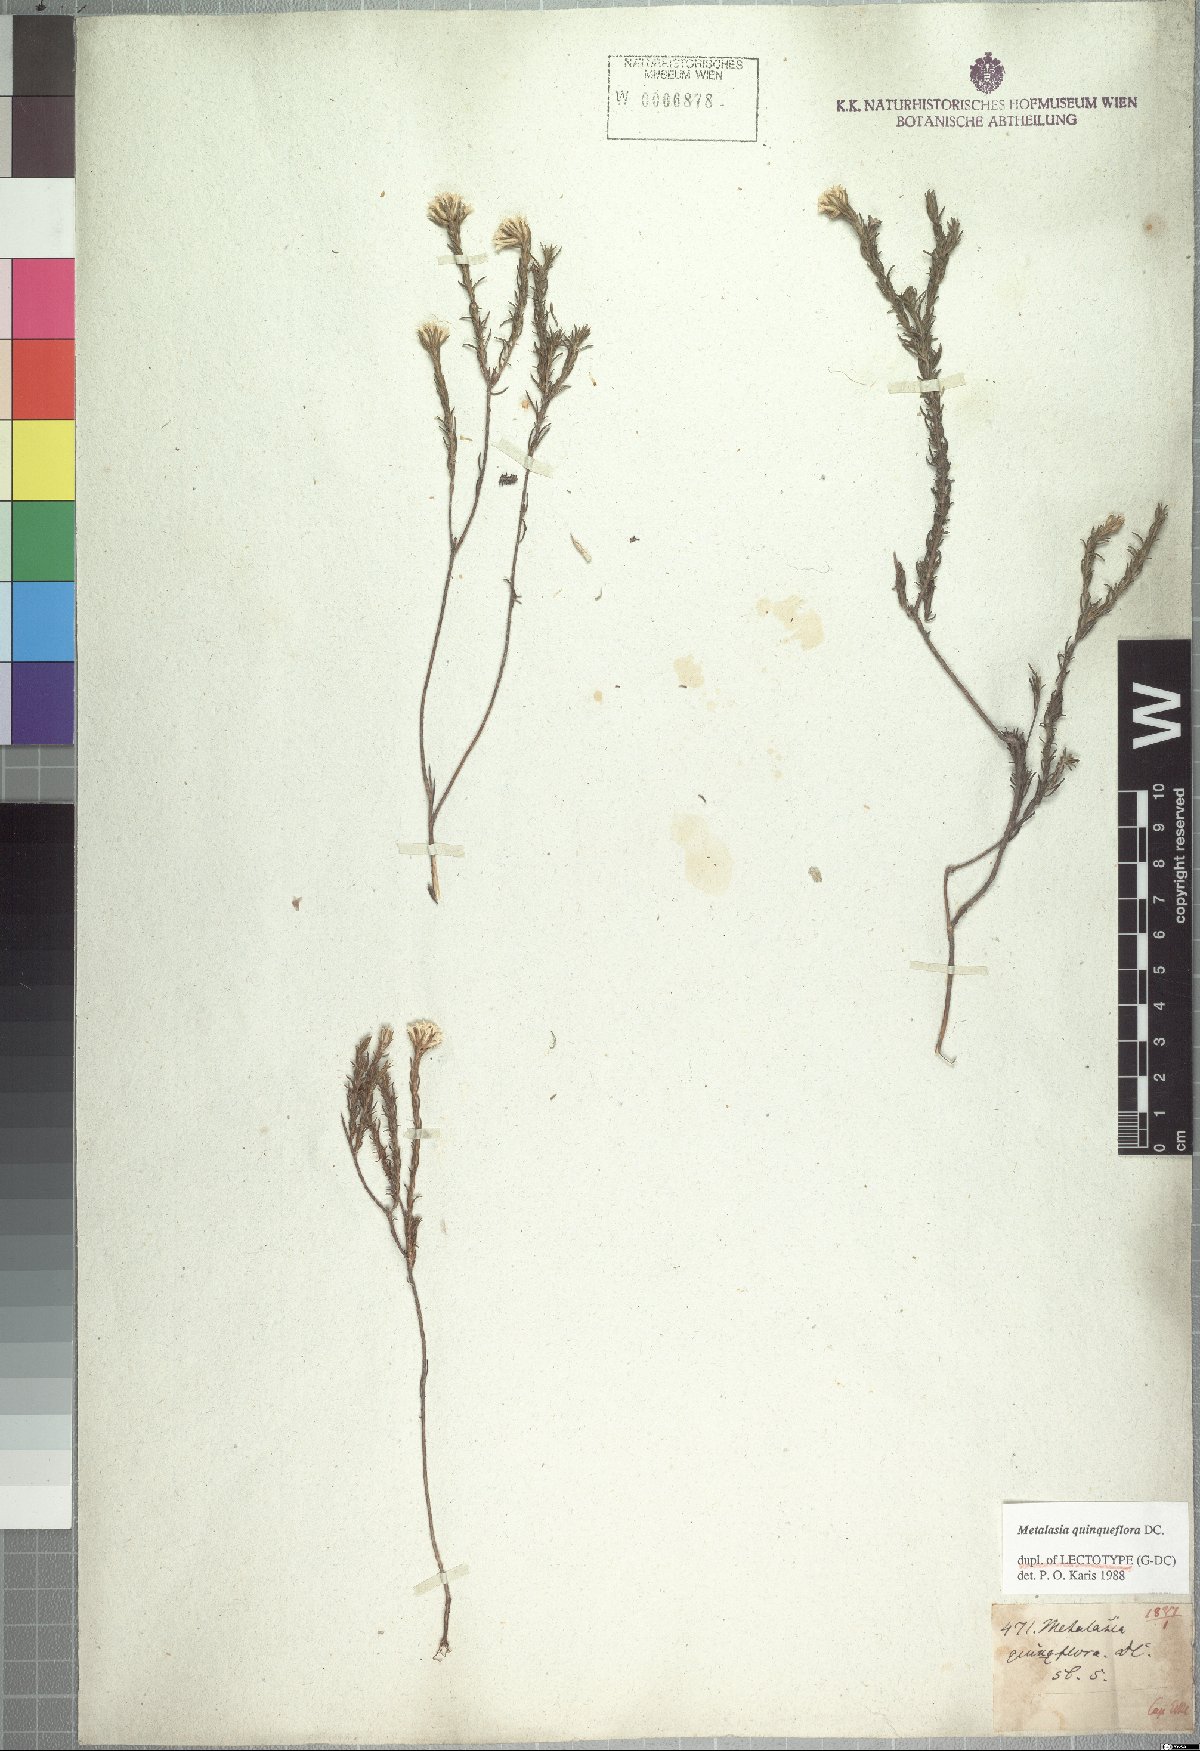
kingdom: Plantae
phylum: Tracheophyta
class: Magnoliopsida
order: Asterales
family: Asteraceae
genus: Metalasia
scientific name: Metalasia quinqueflora
